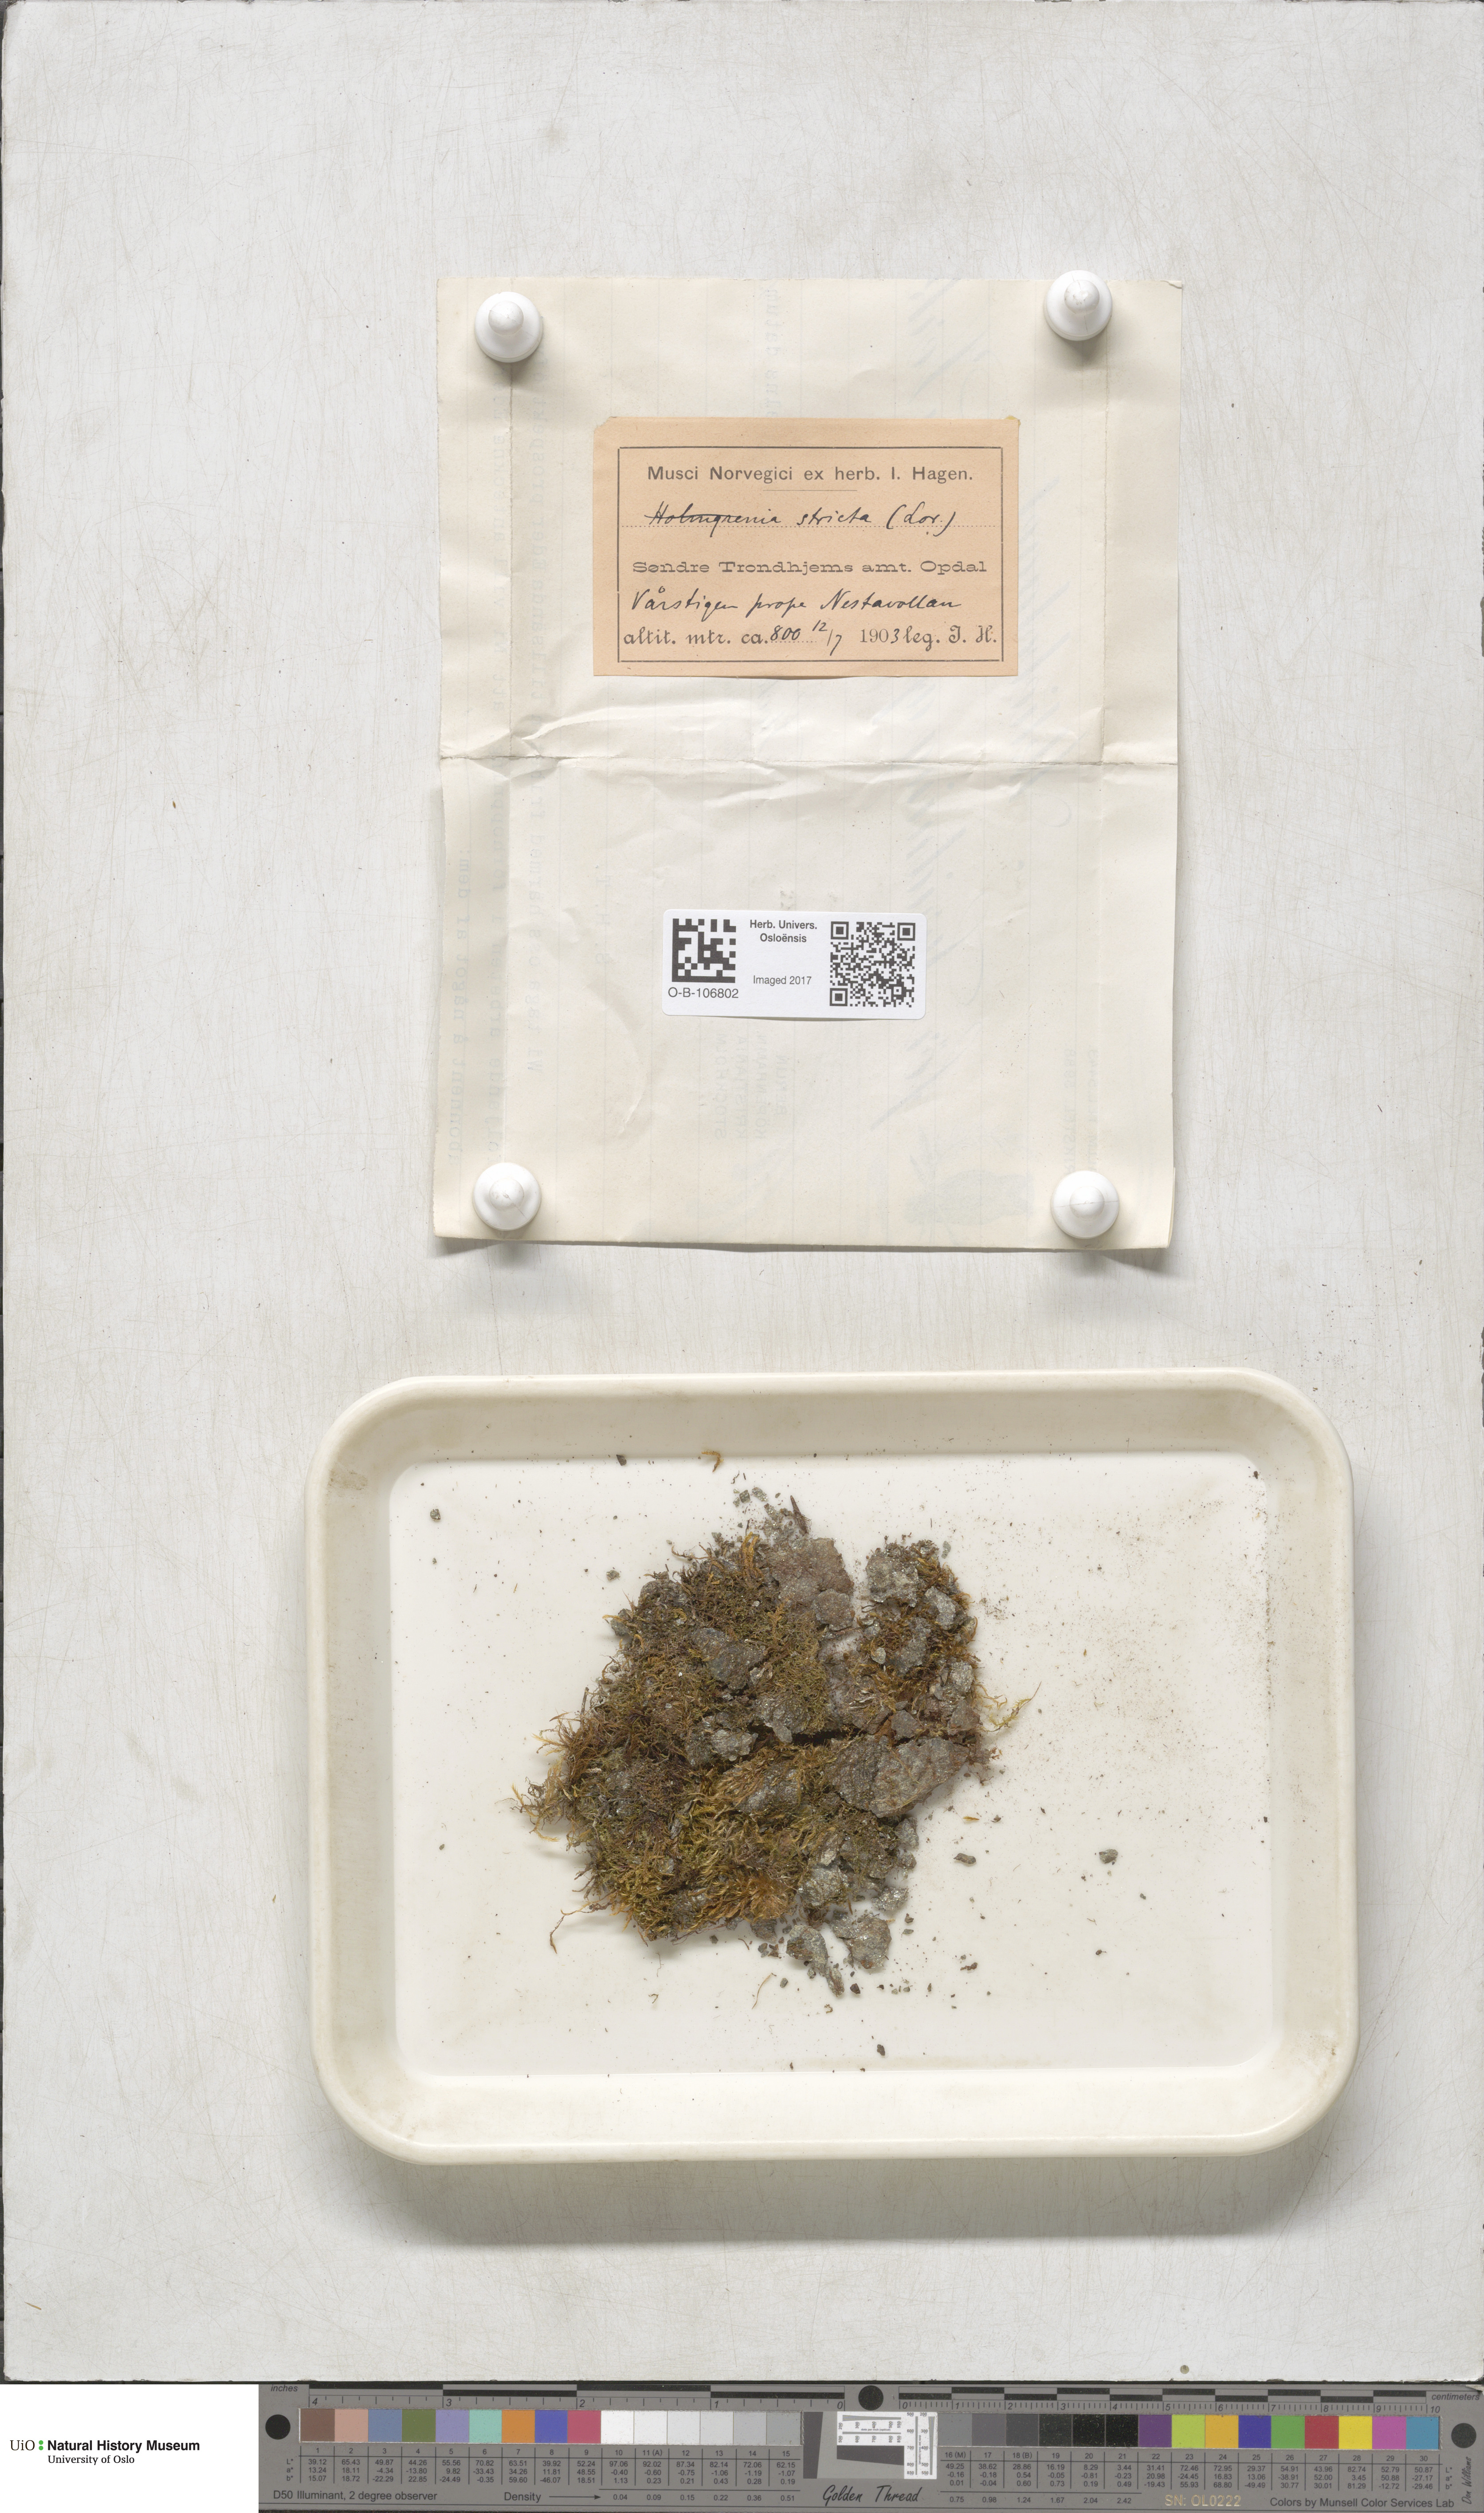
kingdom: Plantae
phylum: Bryophyta
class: Bryopsida
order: Hypnales
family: Plagiotheciaceae
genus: Orthothecium
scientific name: Orthothecium strictum
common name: Shiny erect-capsule moss
